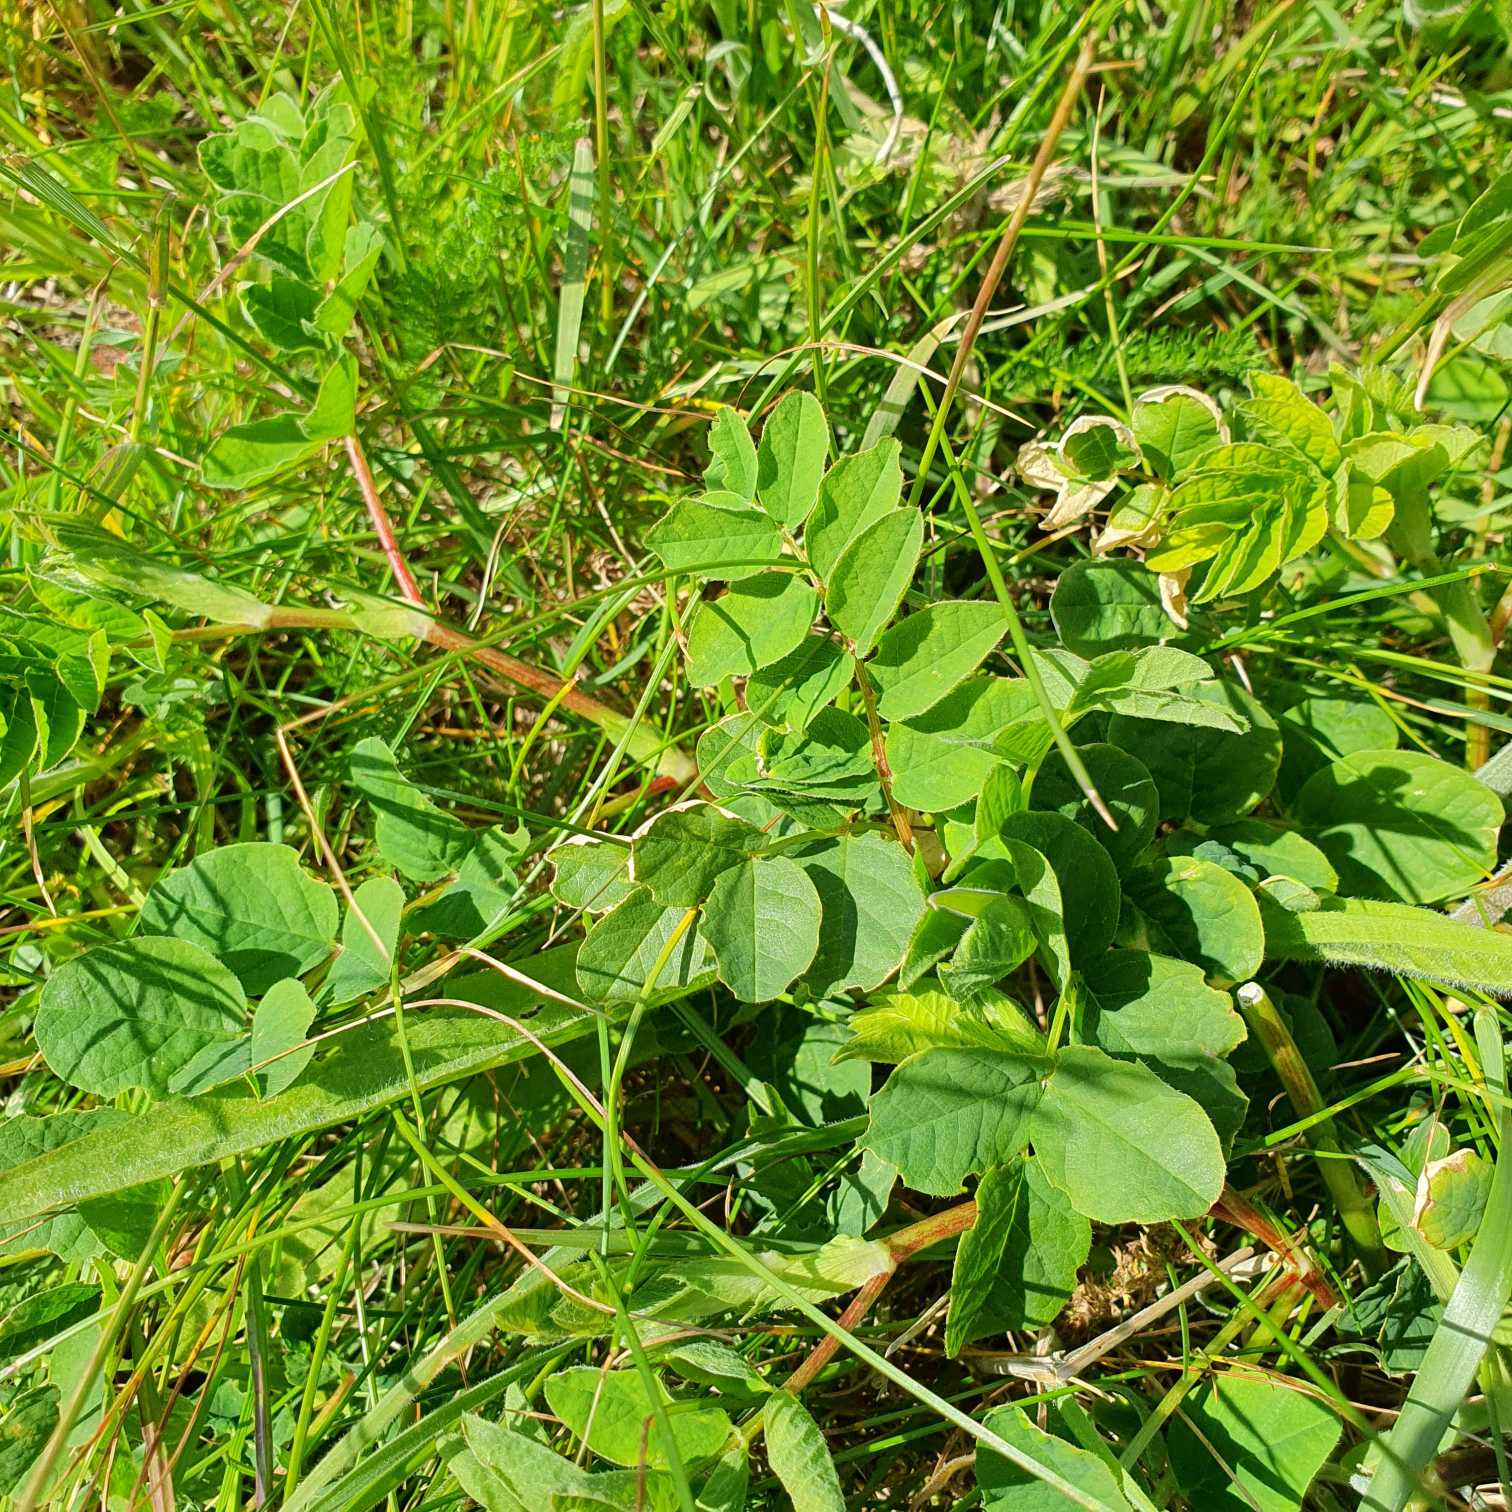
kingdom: Plantae
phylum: Tracheophyta
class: Magnoliopsida
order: Fabales
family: Fabaceae
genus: Astragalus
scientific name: Astragalus glycyphyllos
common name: Sød astragel
